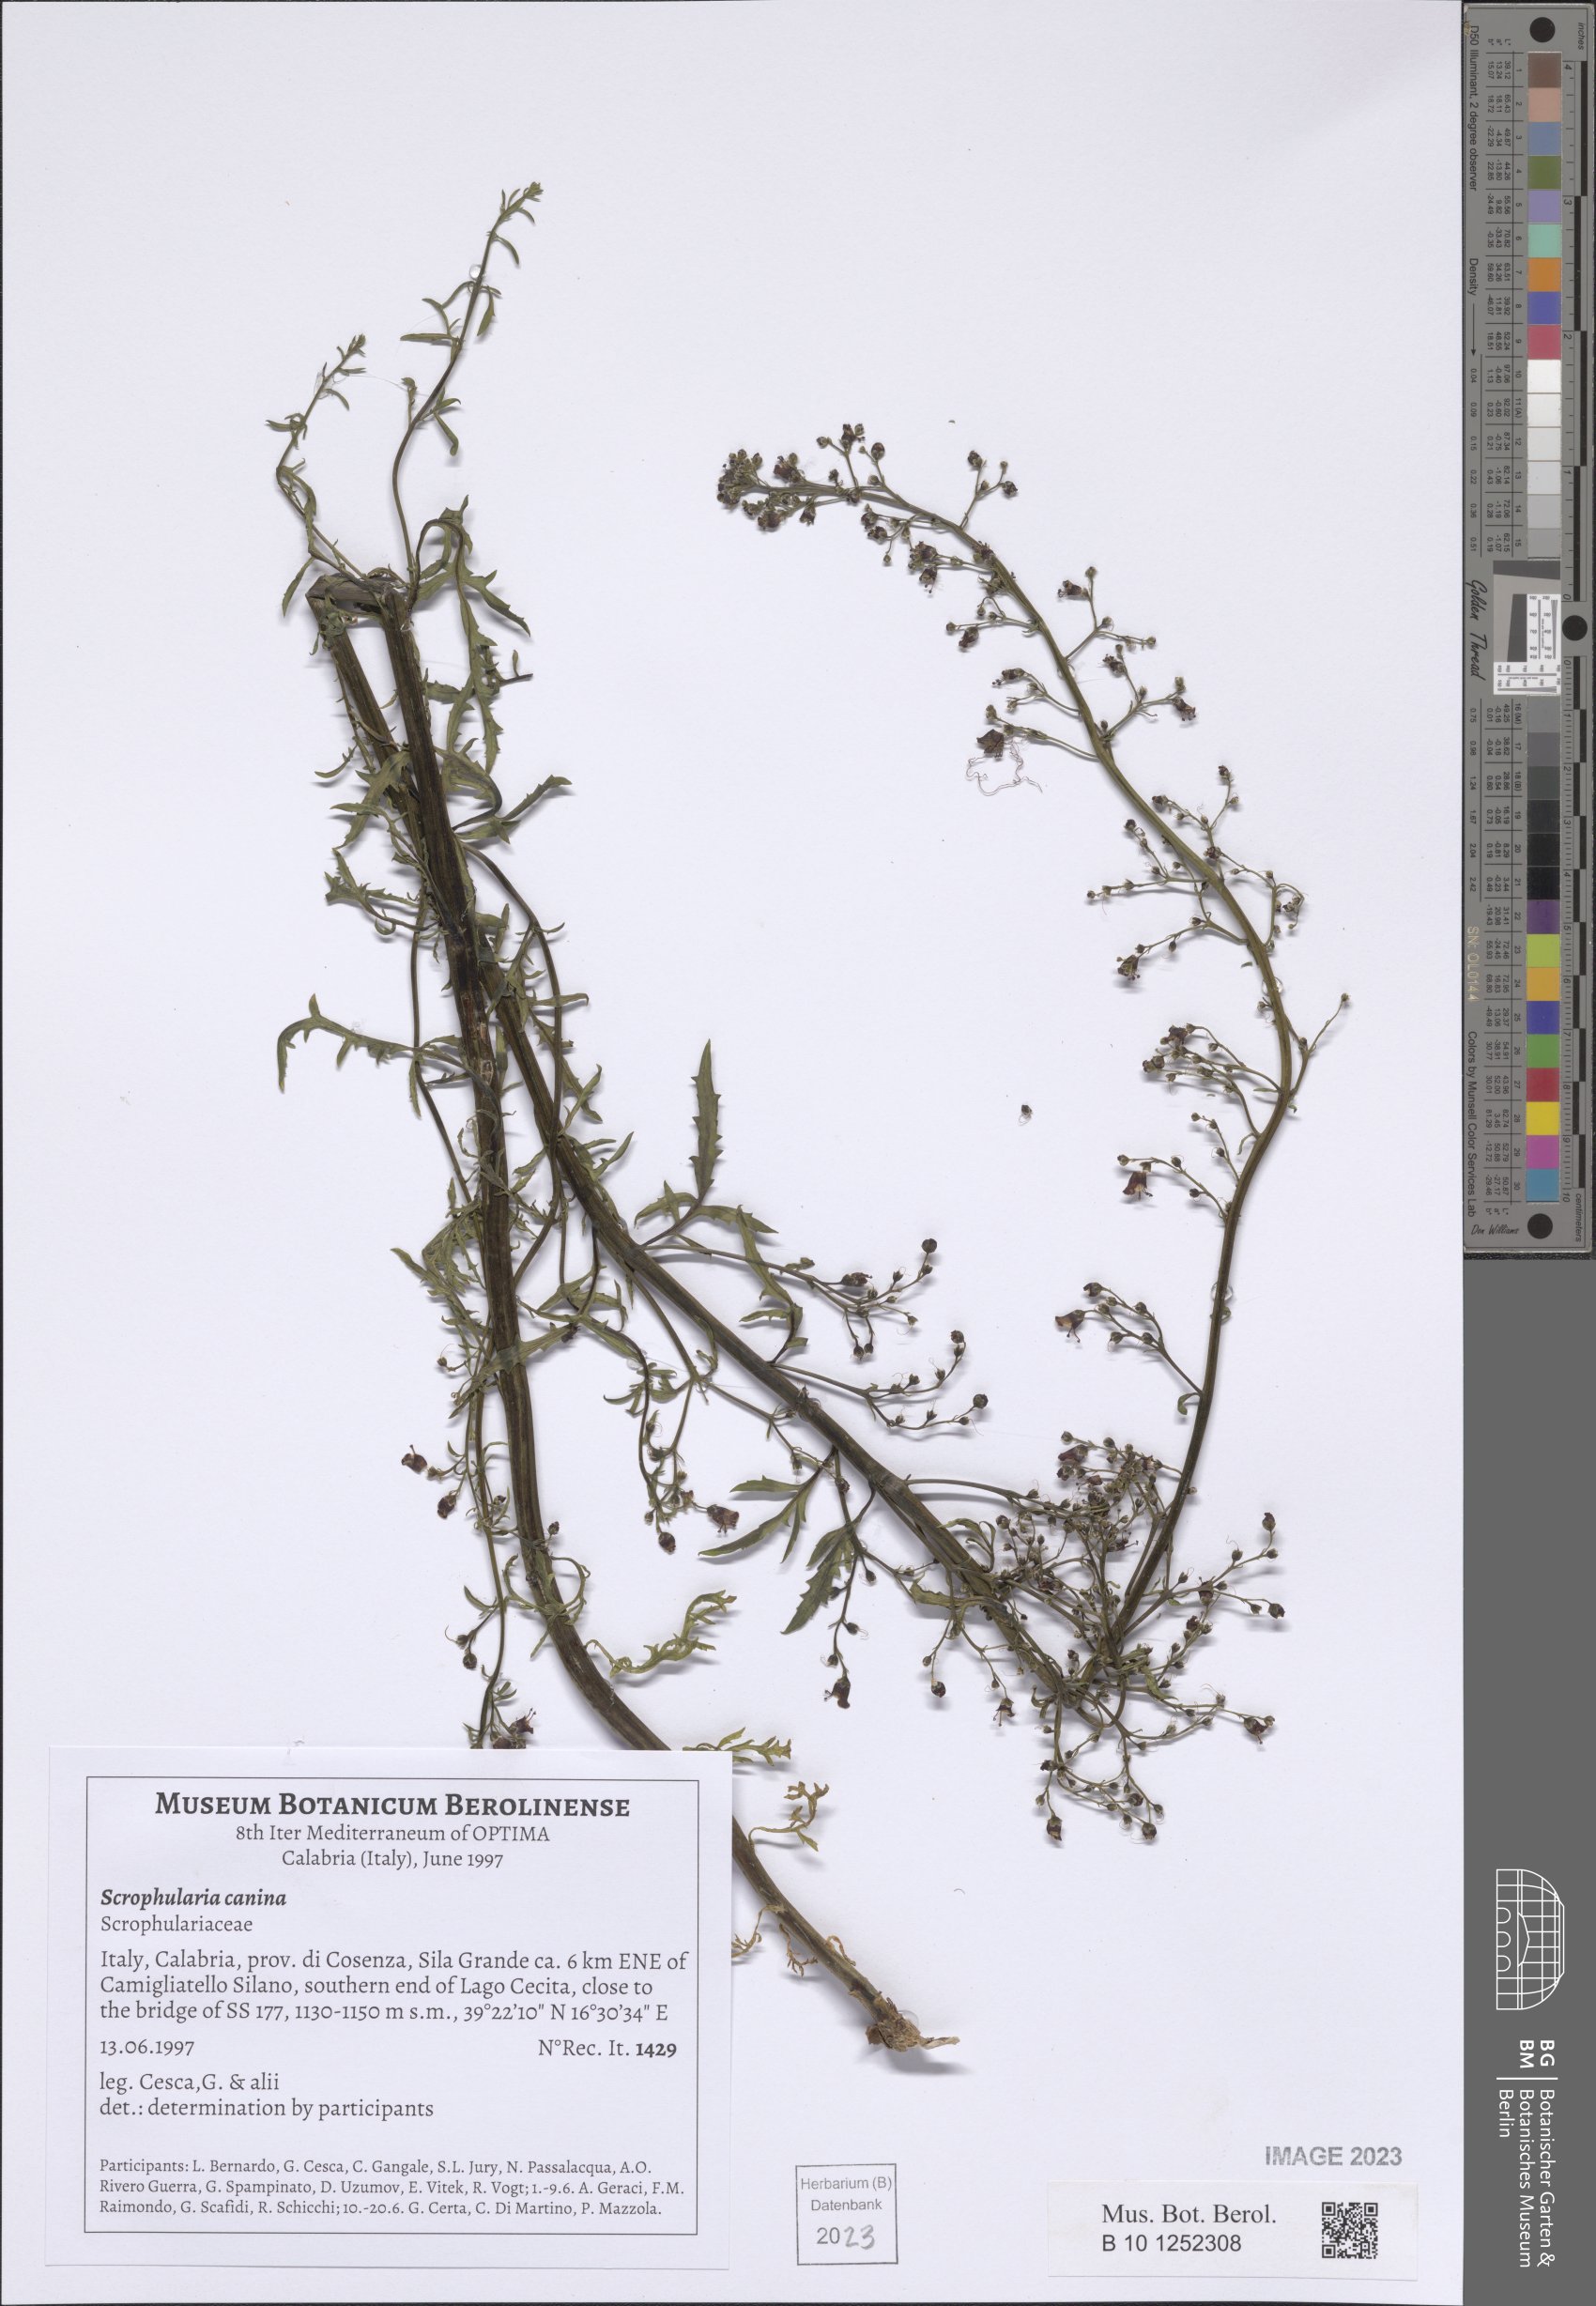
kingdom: Plantae
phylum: Tracheophyta
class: Magnoliopsida
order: Lamiales
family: Scrophulariaceae
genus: Scrophularia
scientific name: Scrophularia canina
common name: French figwort
